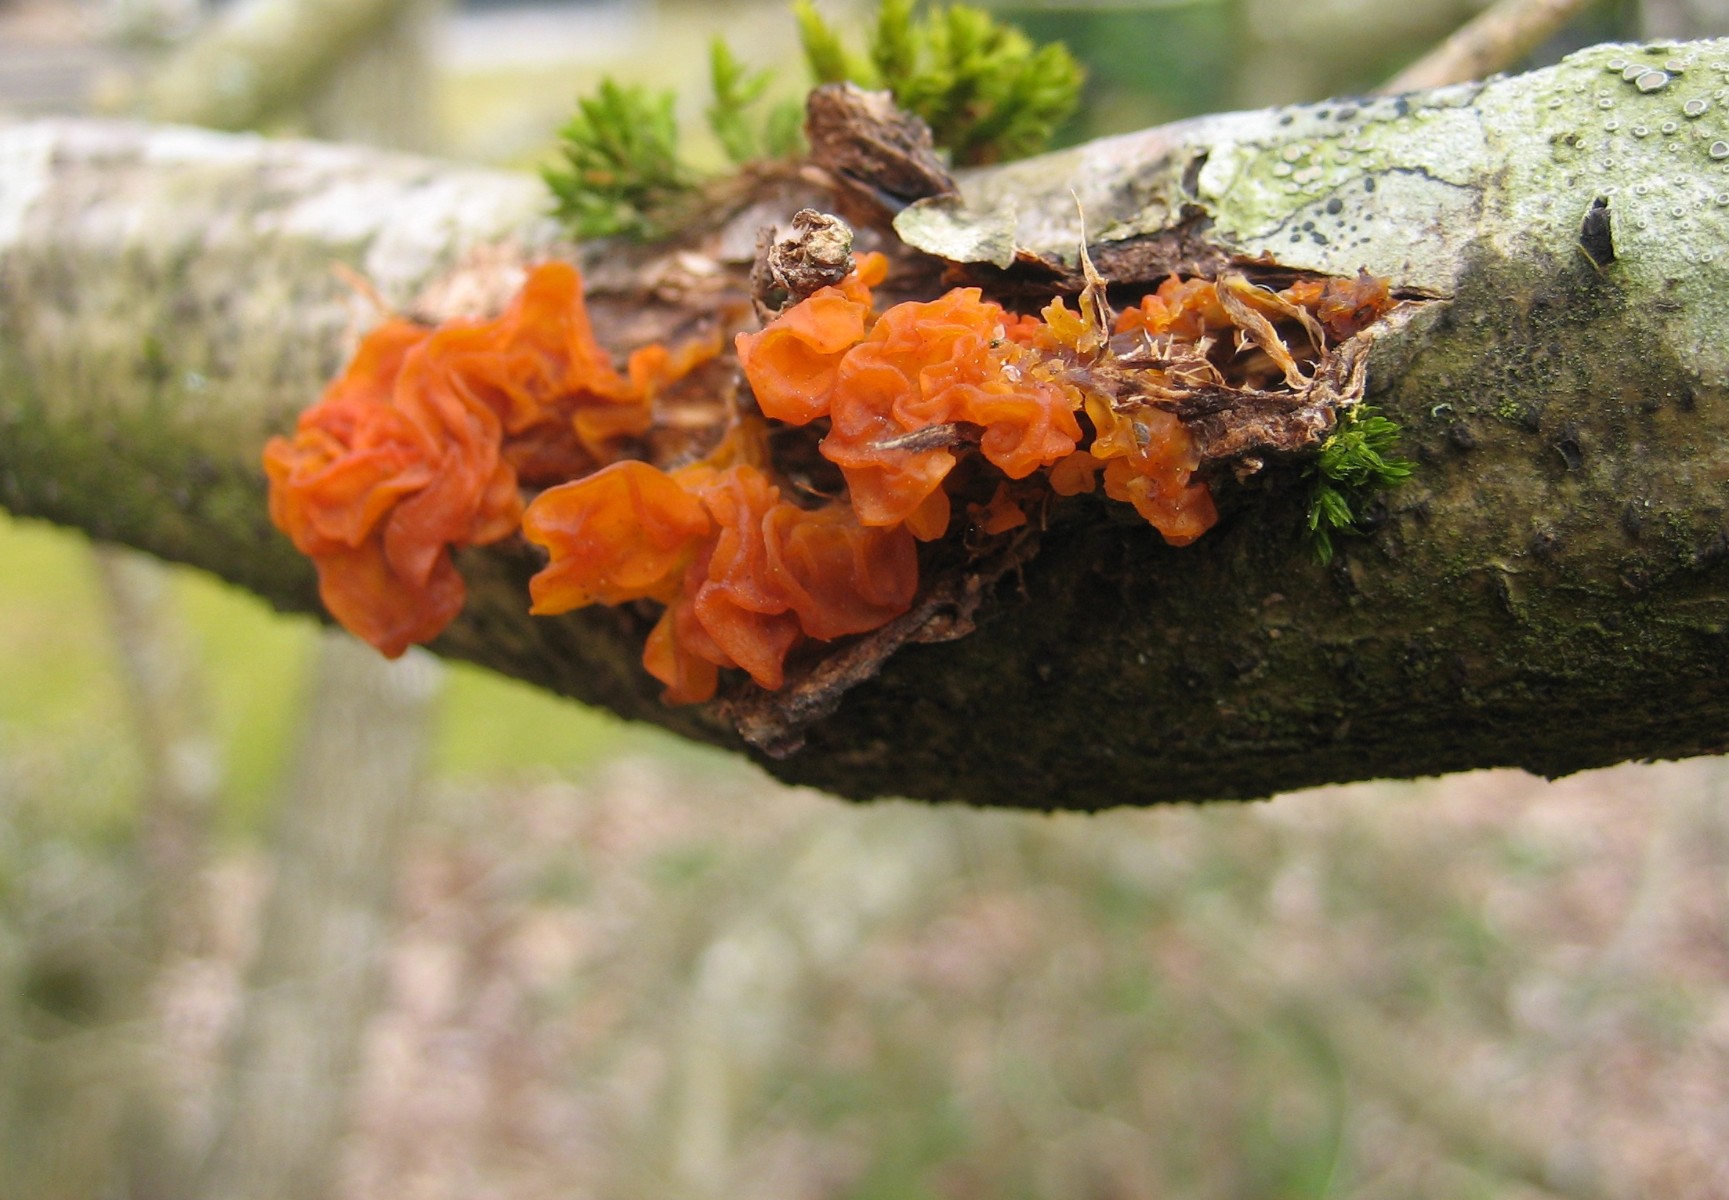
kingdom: Fungi
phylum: Basidiomycota
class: Tremellomycetes
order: Tremellales
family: Tremellaceae
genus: Tremella
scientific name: Tremella mesenterica
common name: gul bævresvamp
